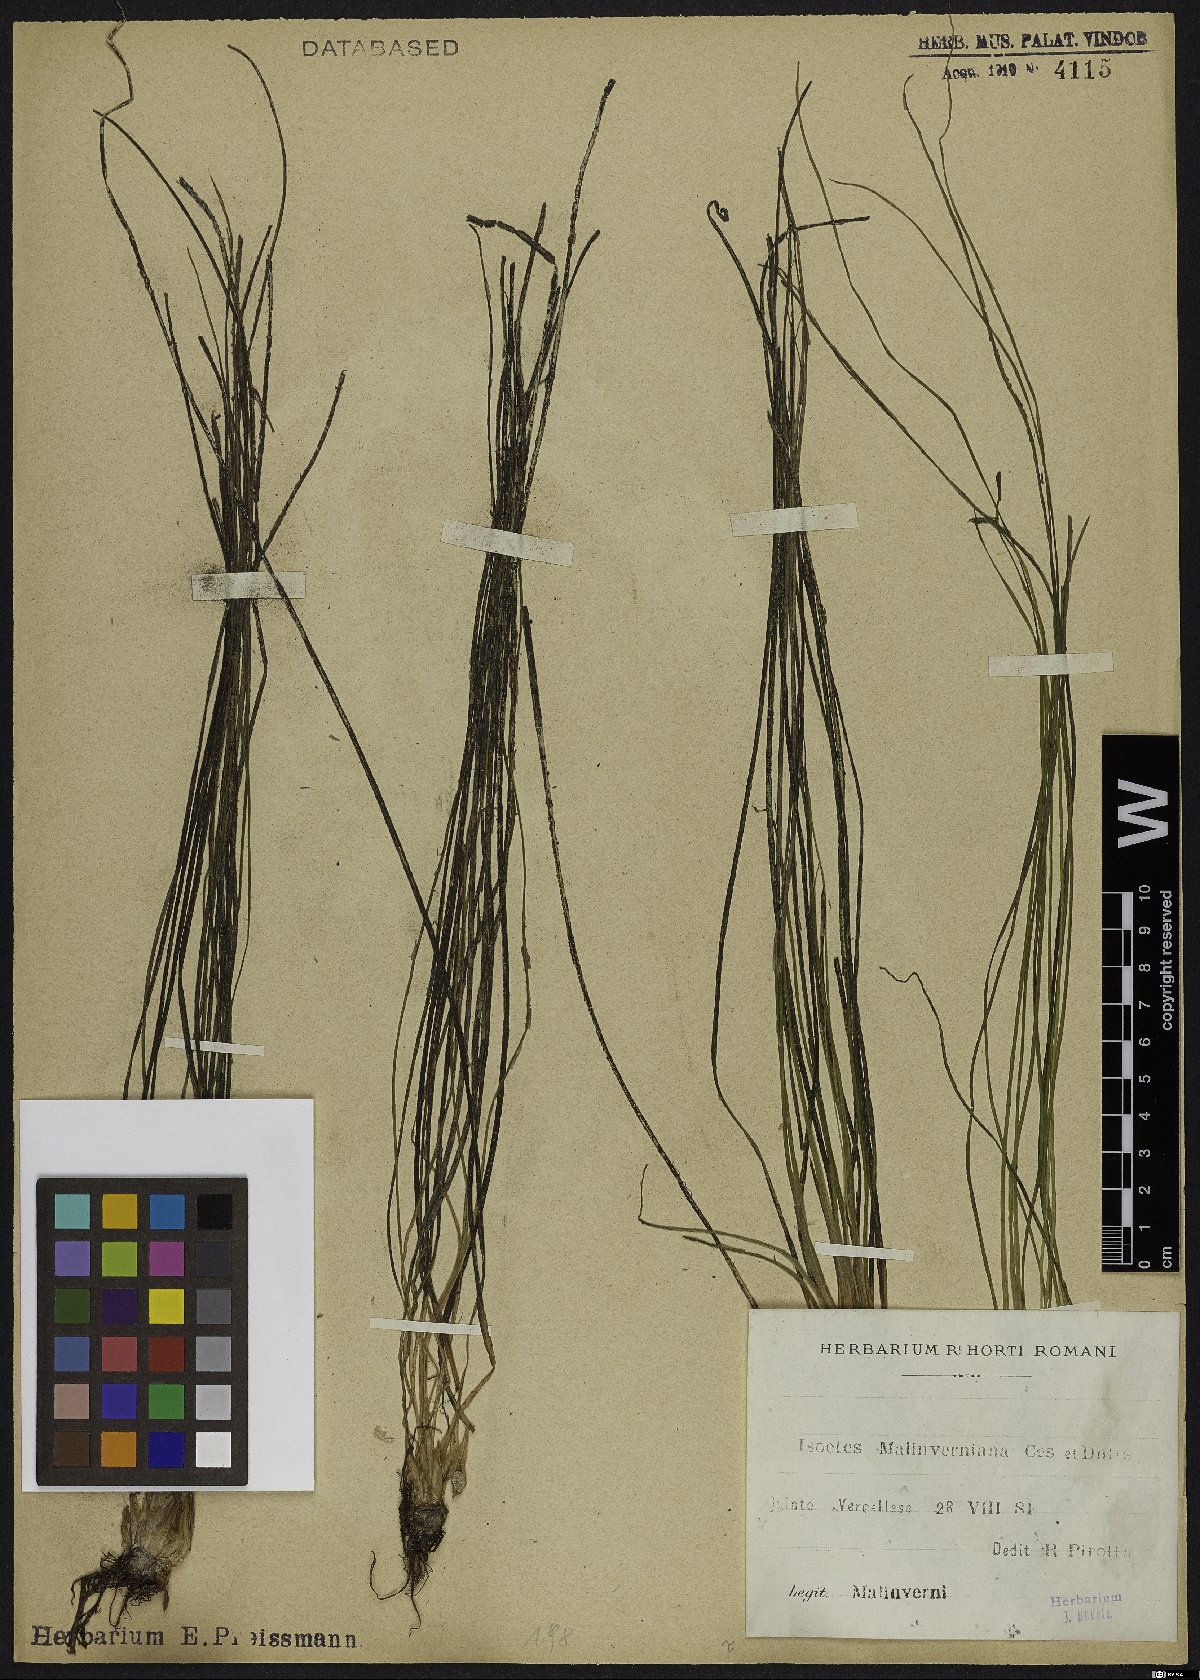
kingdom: Plantae
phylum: Tracheophyta
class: Lycopodiopsida
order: Isoetales
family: Isoetaceae
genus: Isoetes
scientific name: Isoetes malinverniana
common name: Piedmont quillwort
